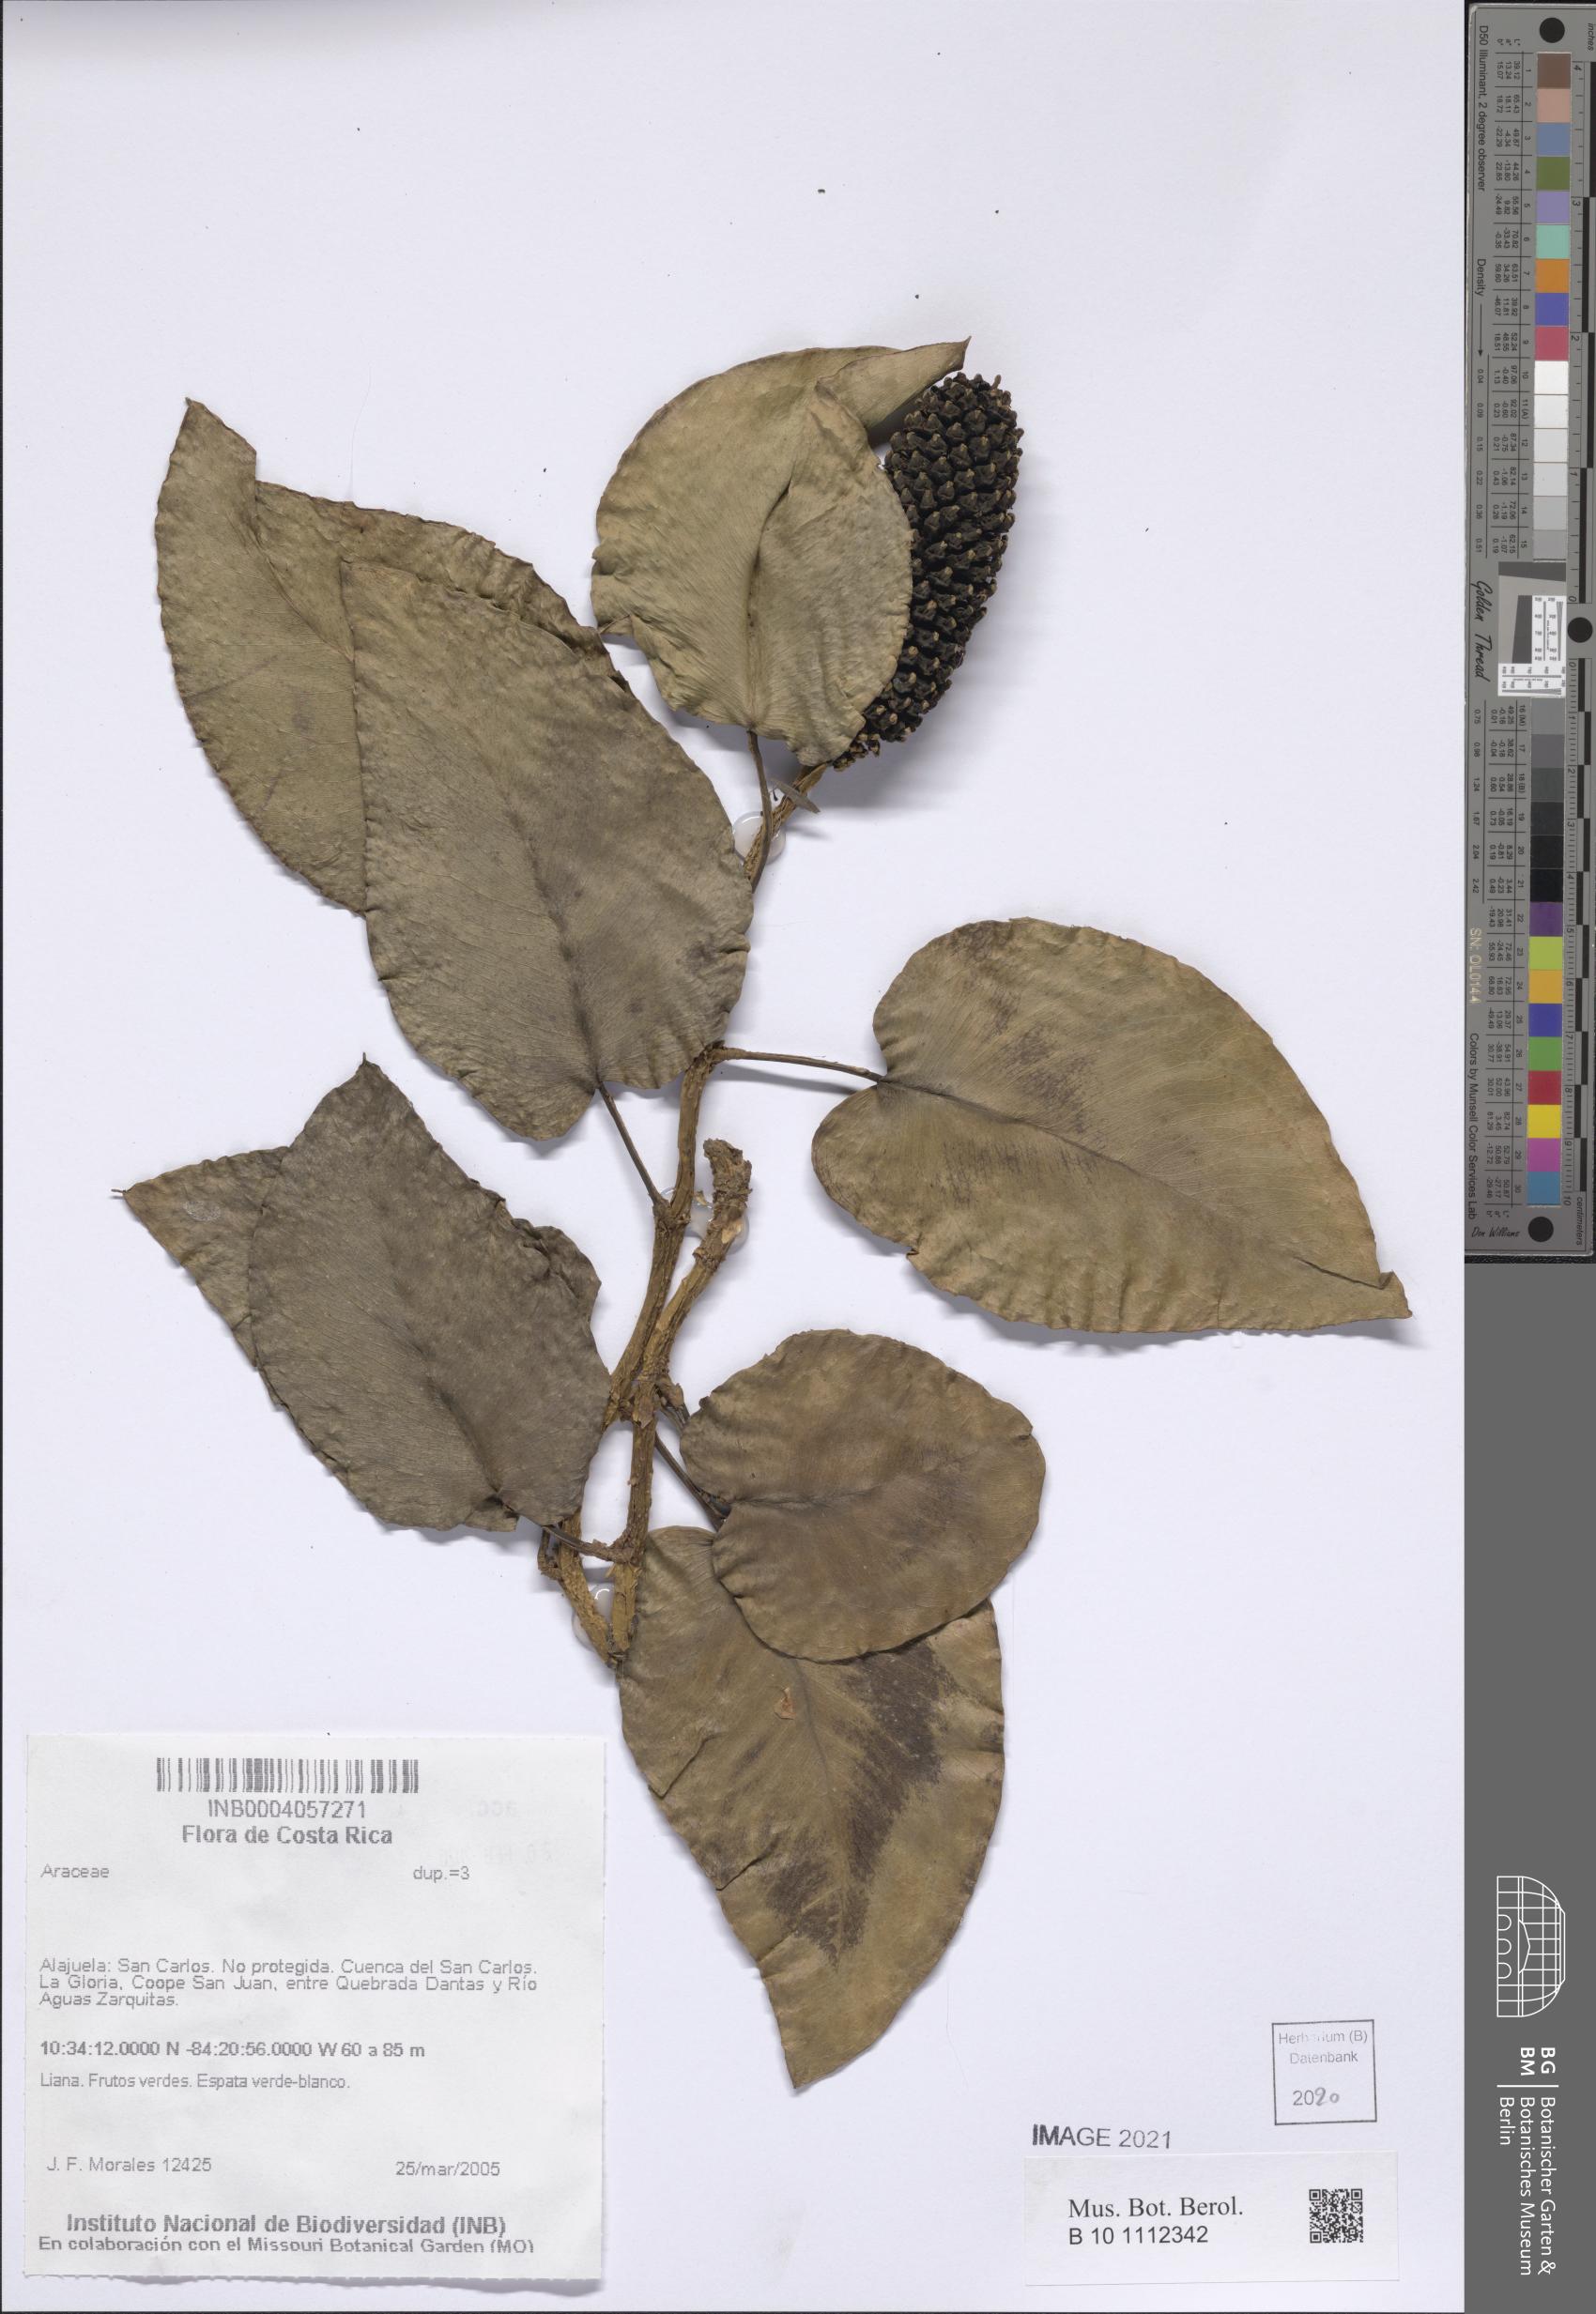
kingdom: Plantae
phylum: Tracheophyta
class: Liliopsida
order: Alismatales
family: Araceae
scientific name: Araceae
